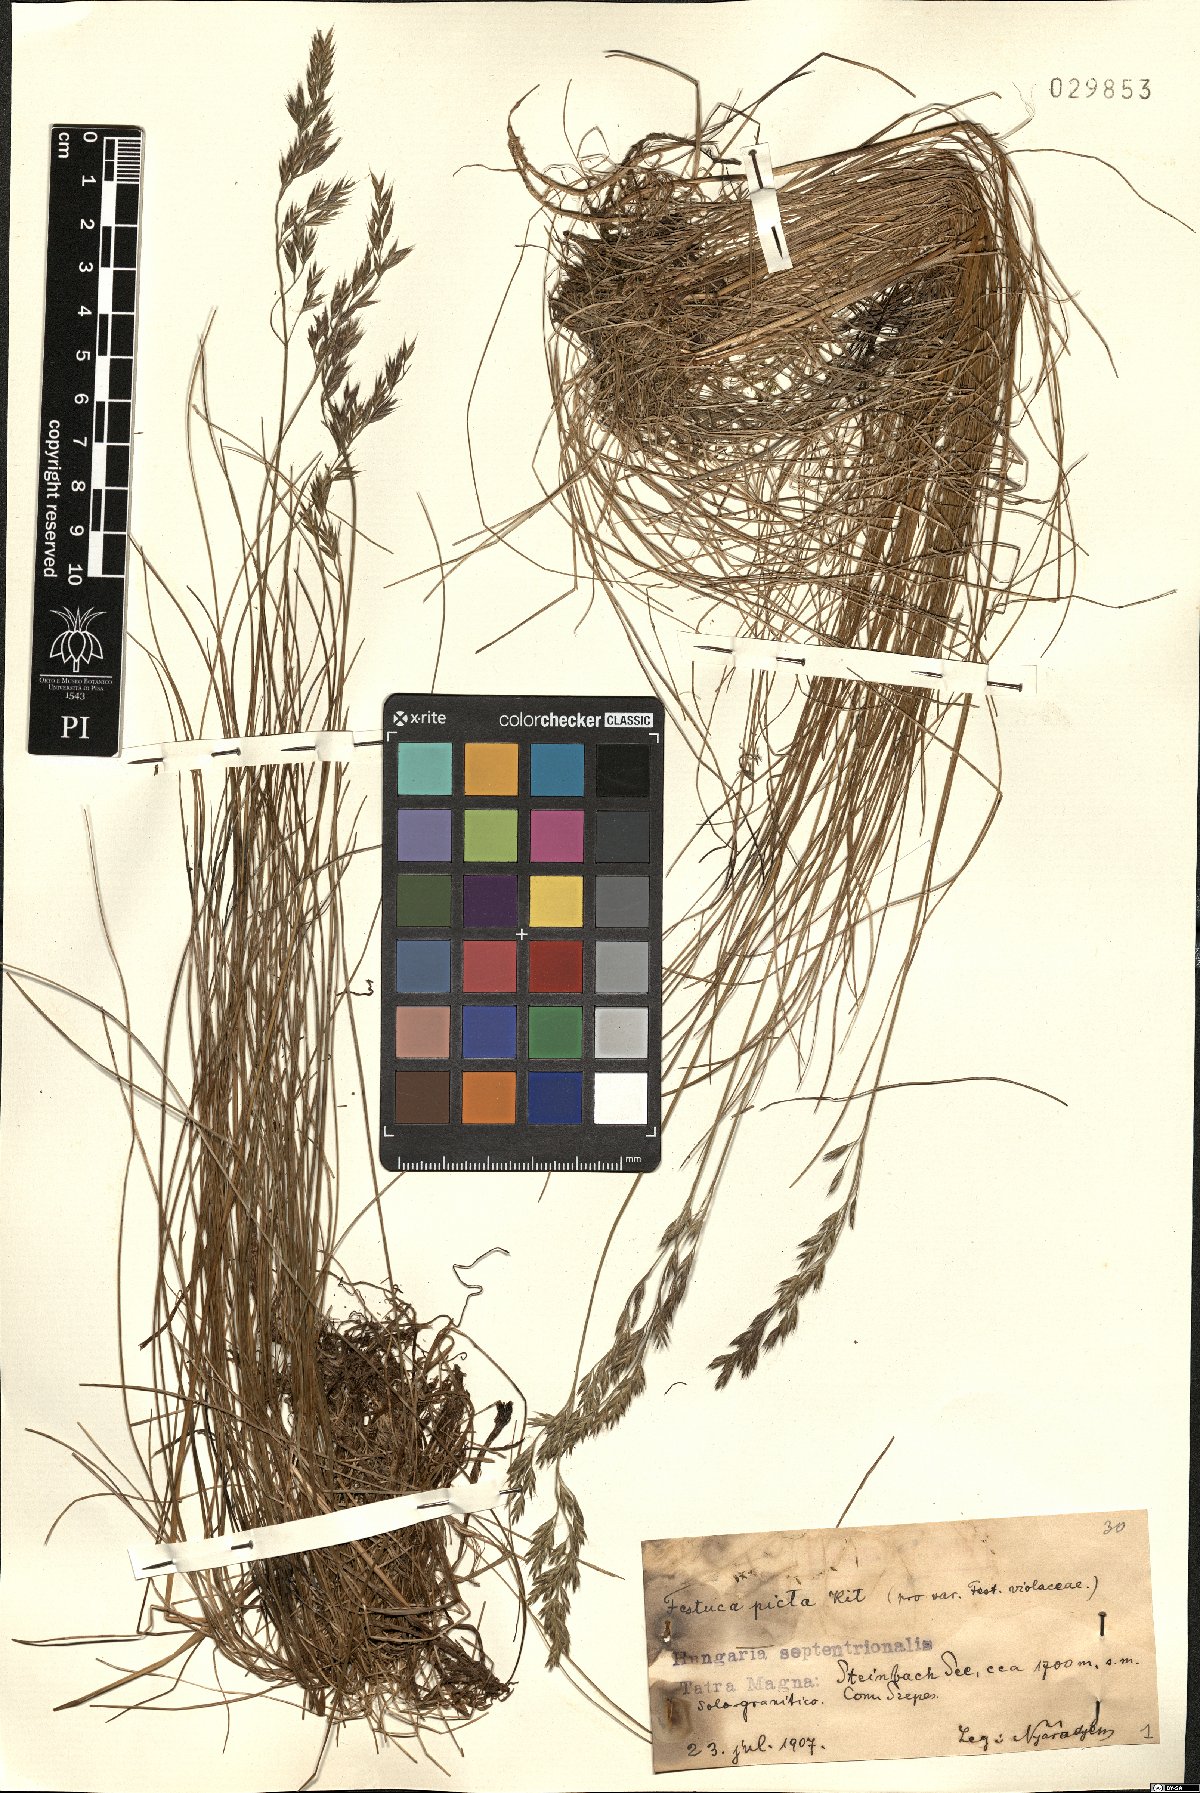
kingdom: Plantae
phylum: Tracheophyta
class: Liliopsida
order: Poales
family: Poaceae
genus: Festuca
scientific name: Festuca picturata
